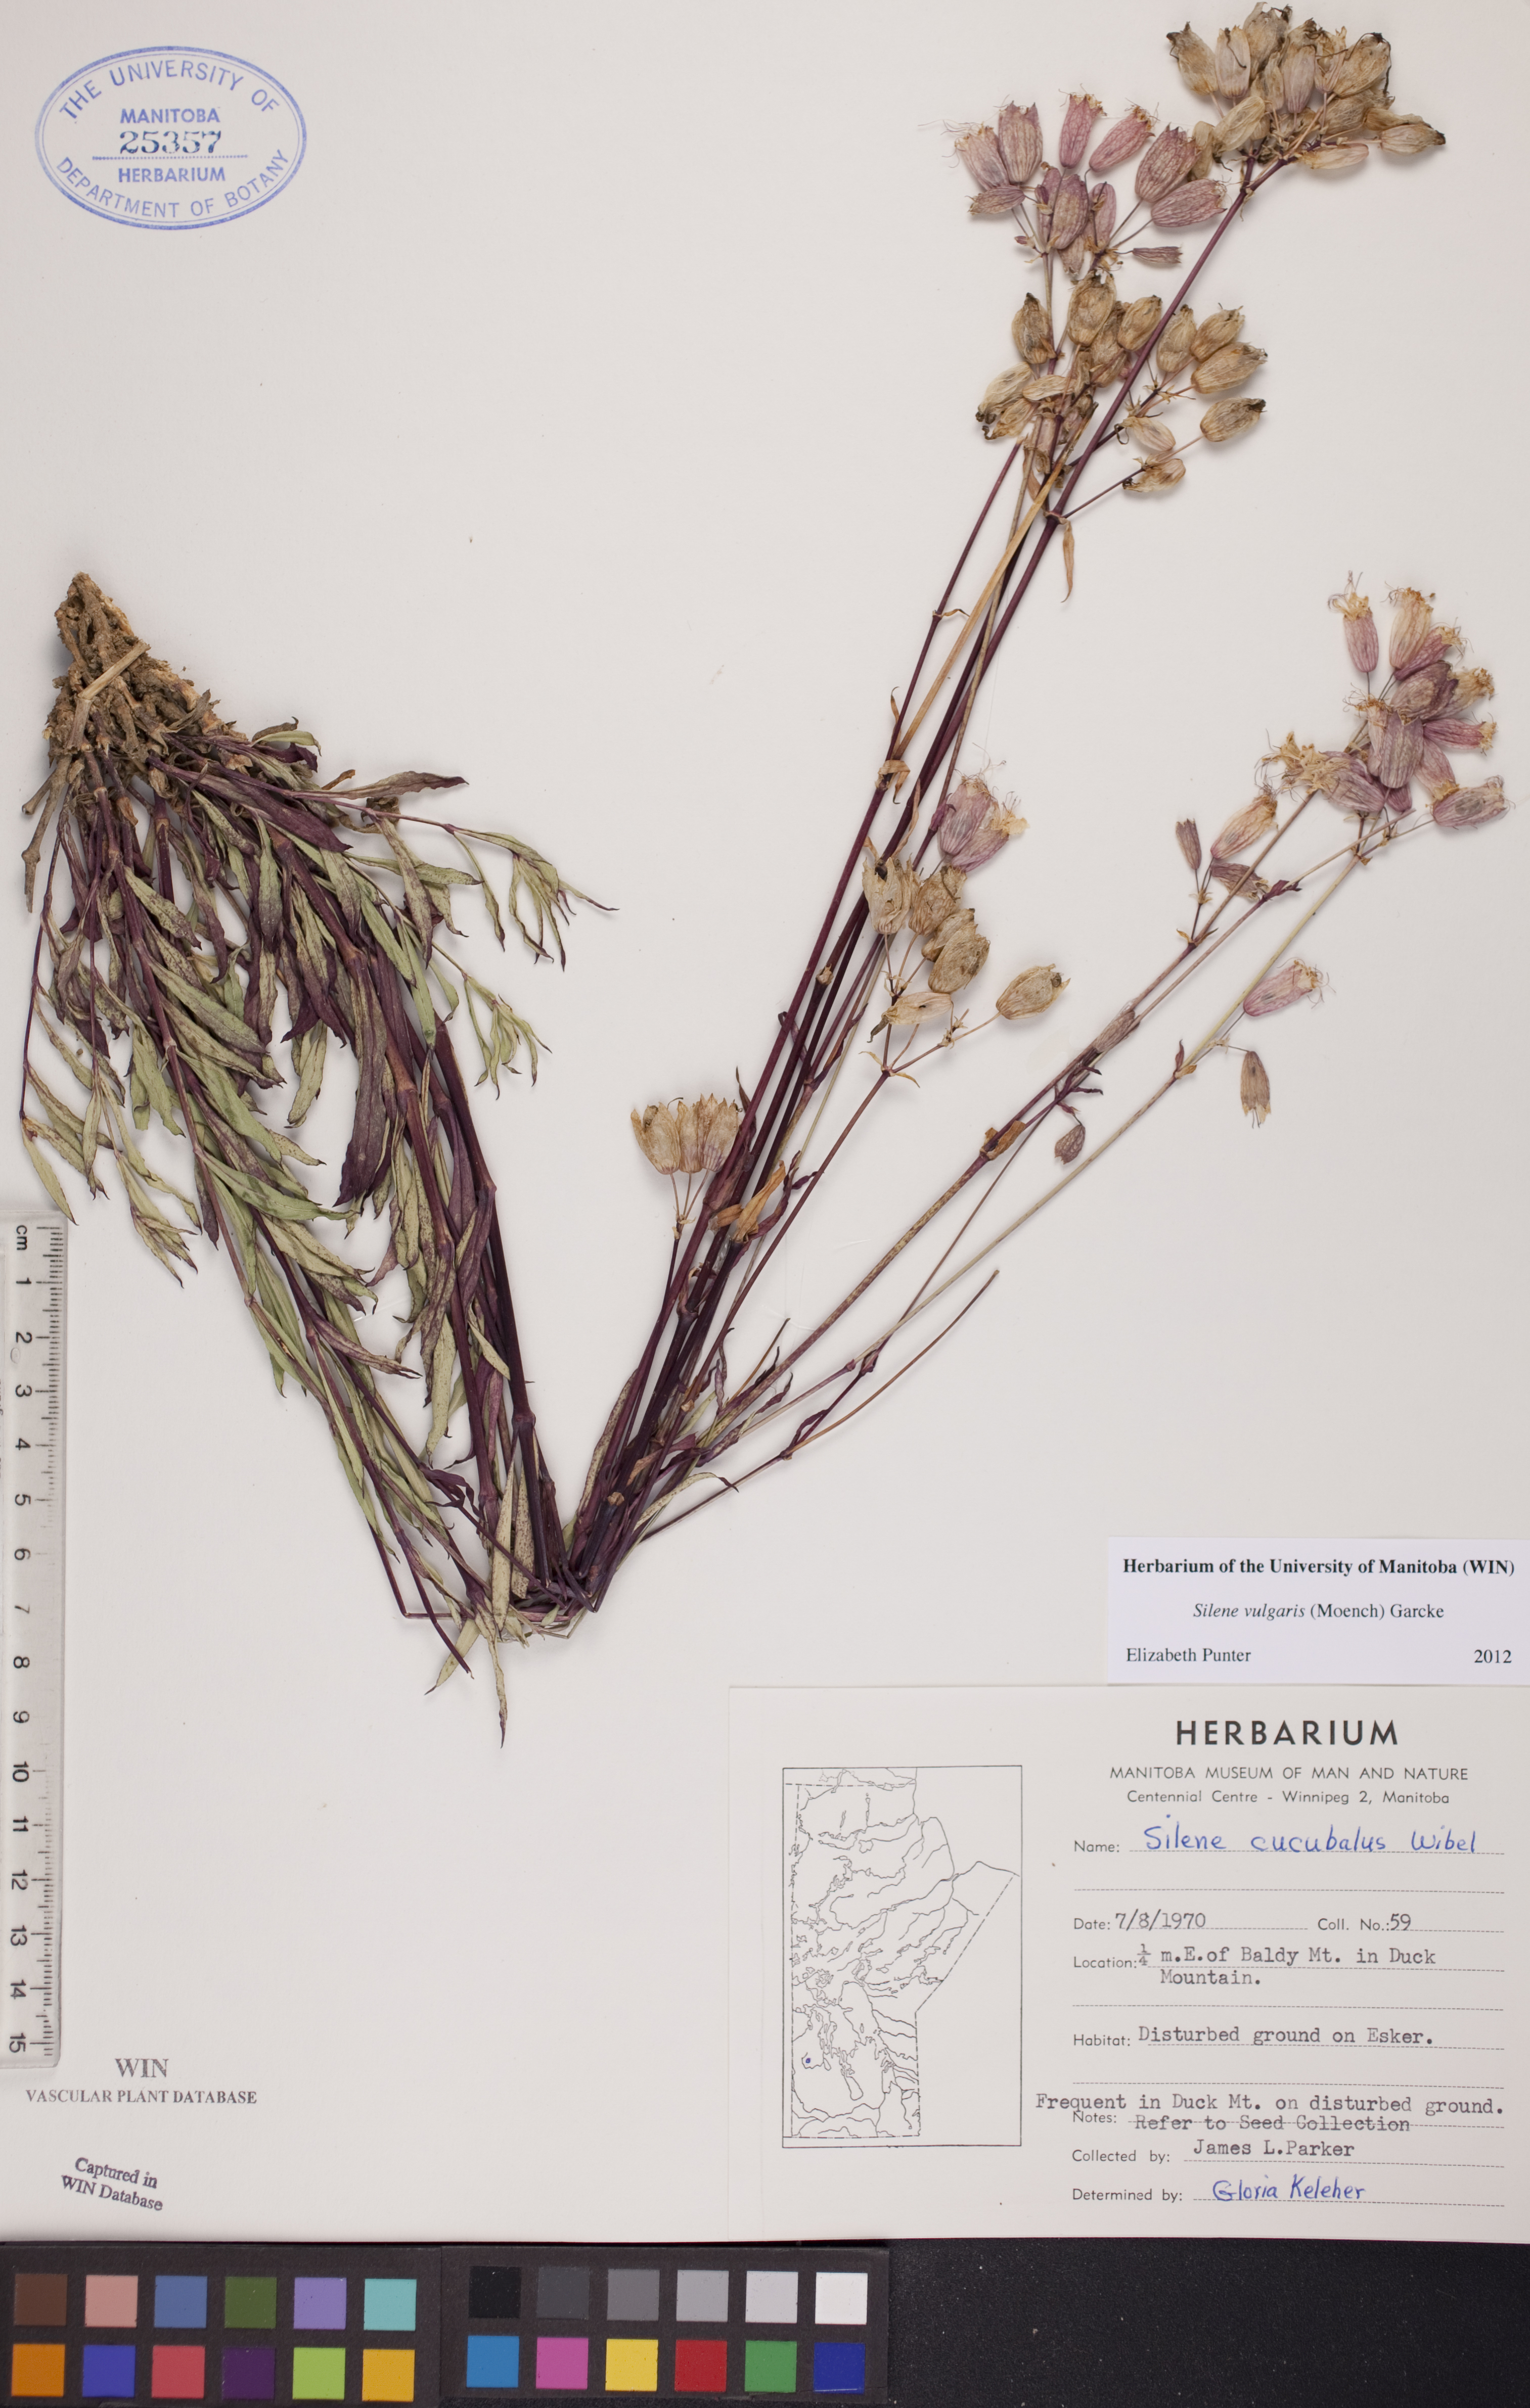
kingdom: Plantae
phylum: Tracheophyta
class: Magnoliopsida
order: Caryophyllales
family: Caryophyllaceae
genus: Silene
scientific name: Silene vulgaris
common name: Bladder campion
